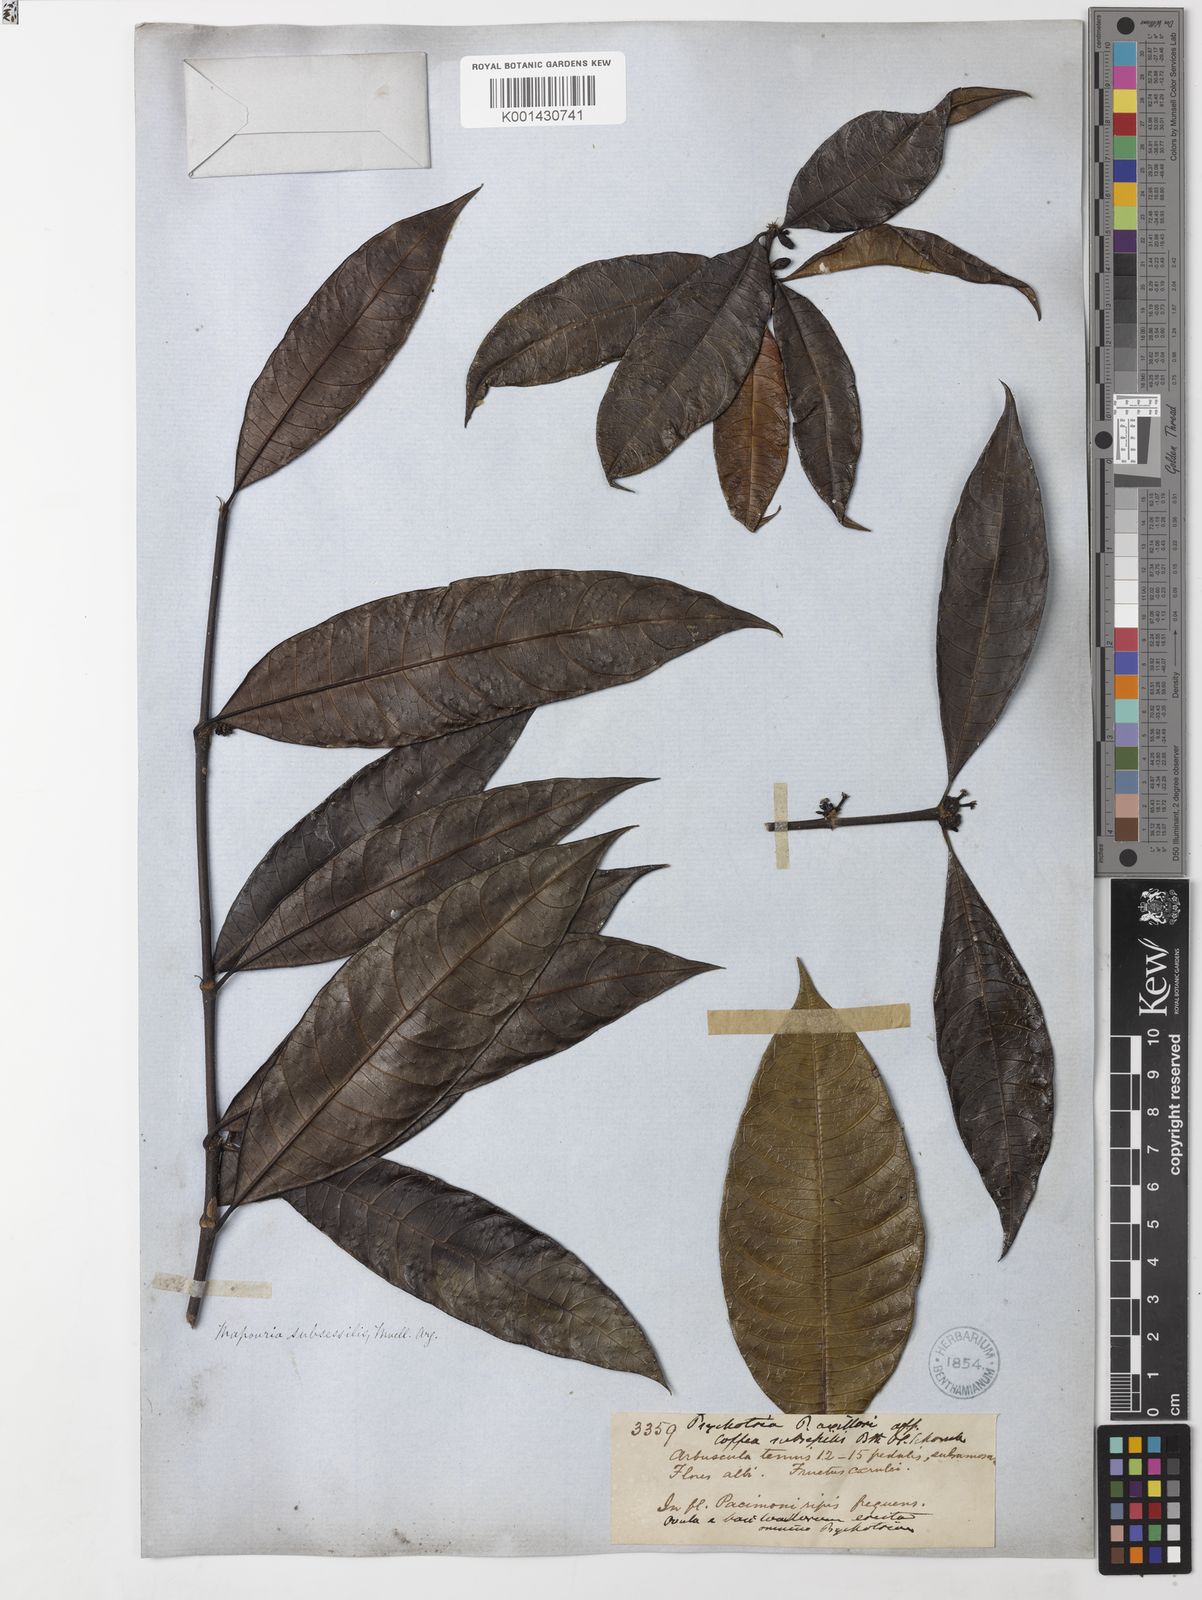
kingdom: Plantae
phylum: Tracheophyta
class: Magnoliopsida
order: Gentianales
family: Rubiaceae
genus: Ronabea
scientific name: Ronabea latifolia
